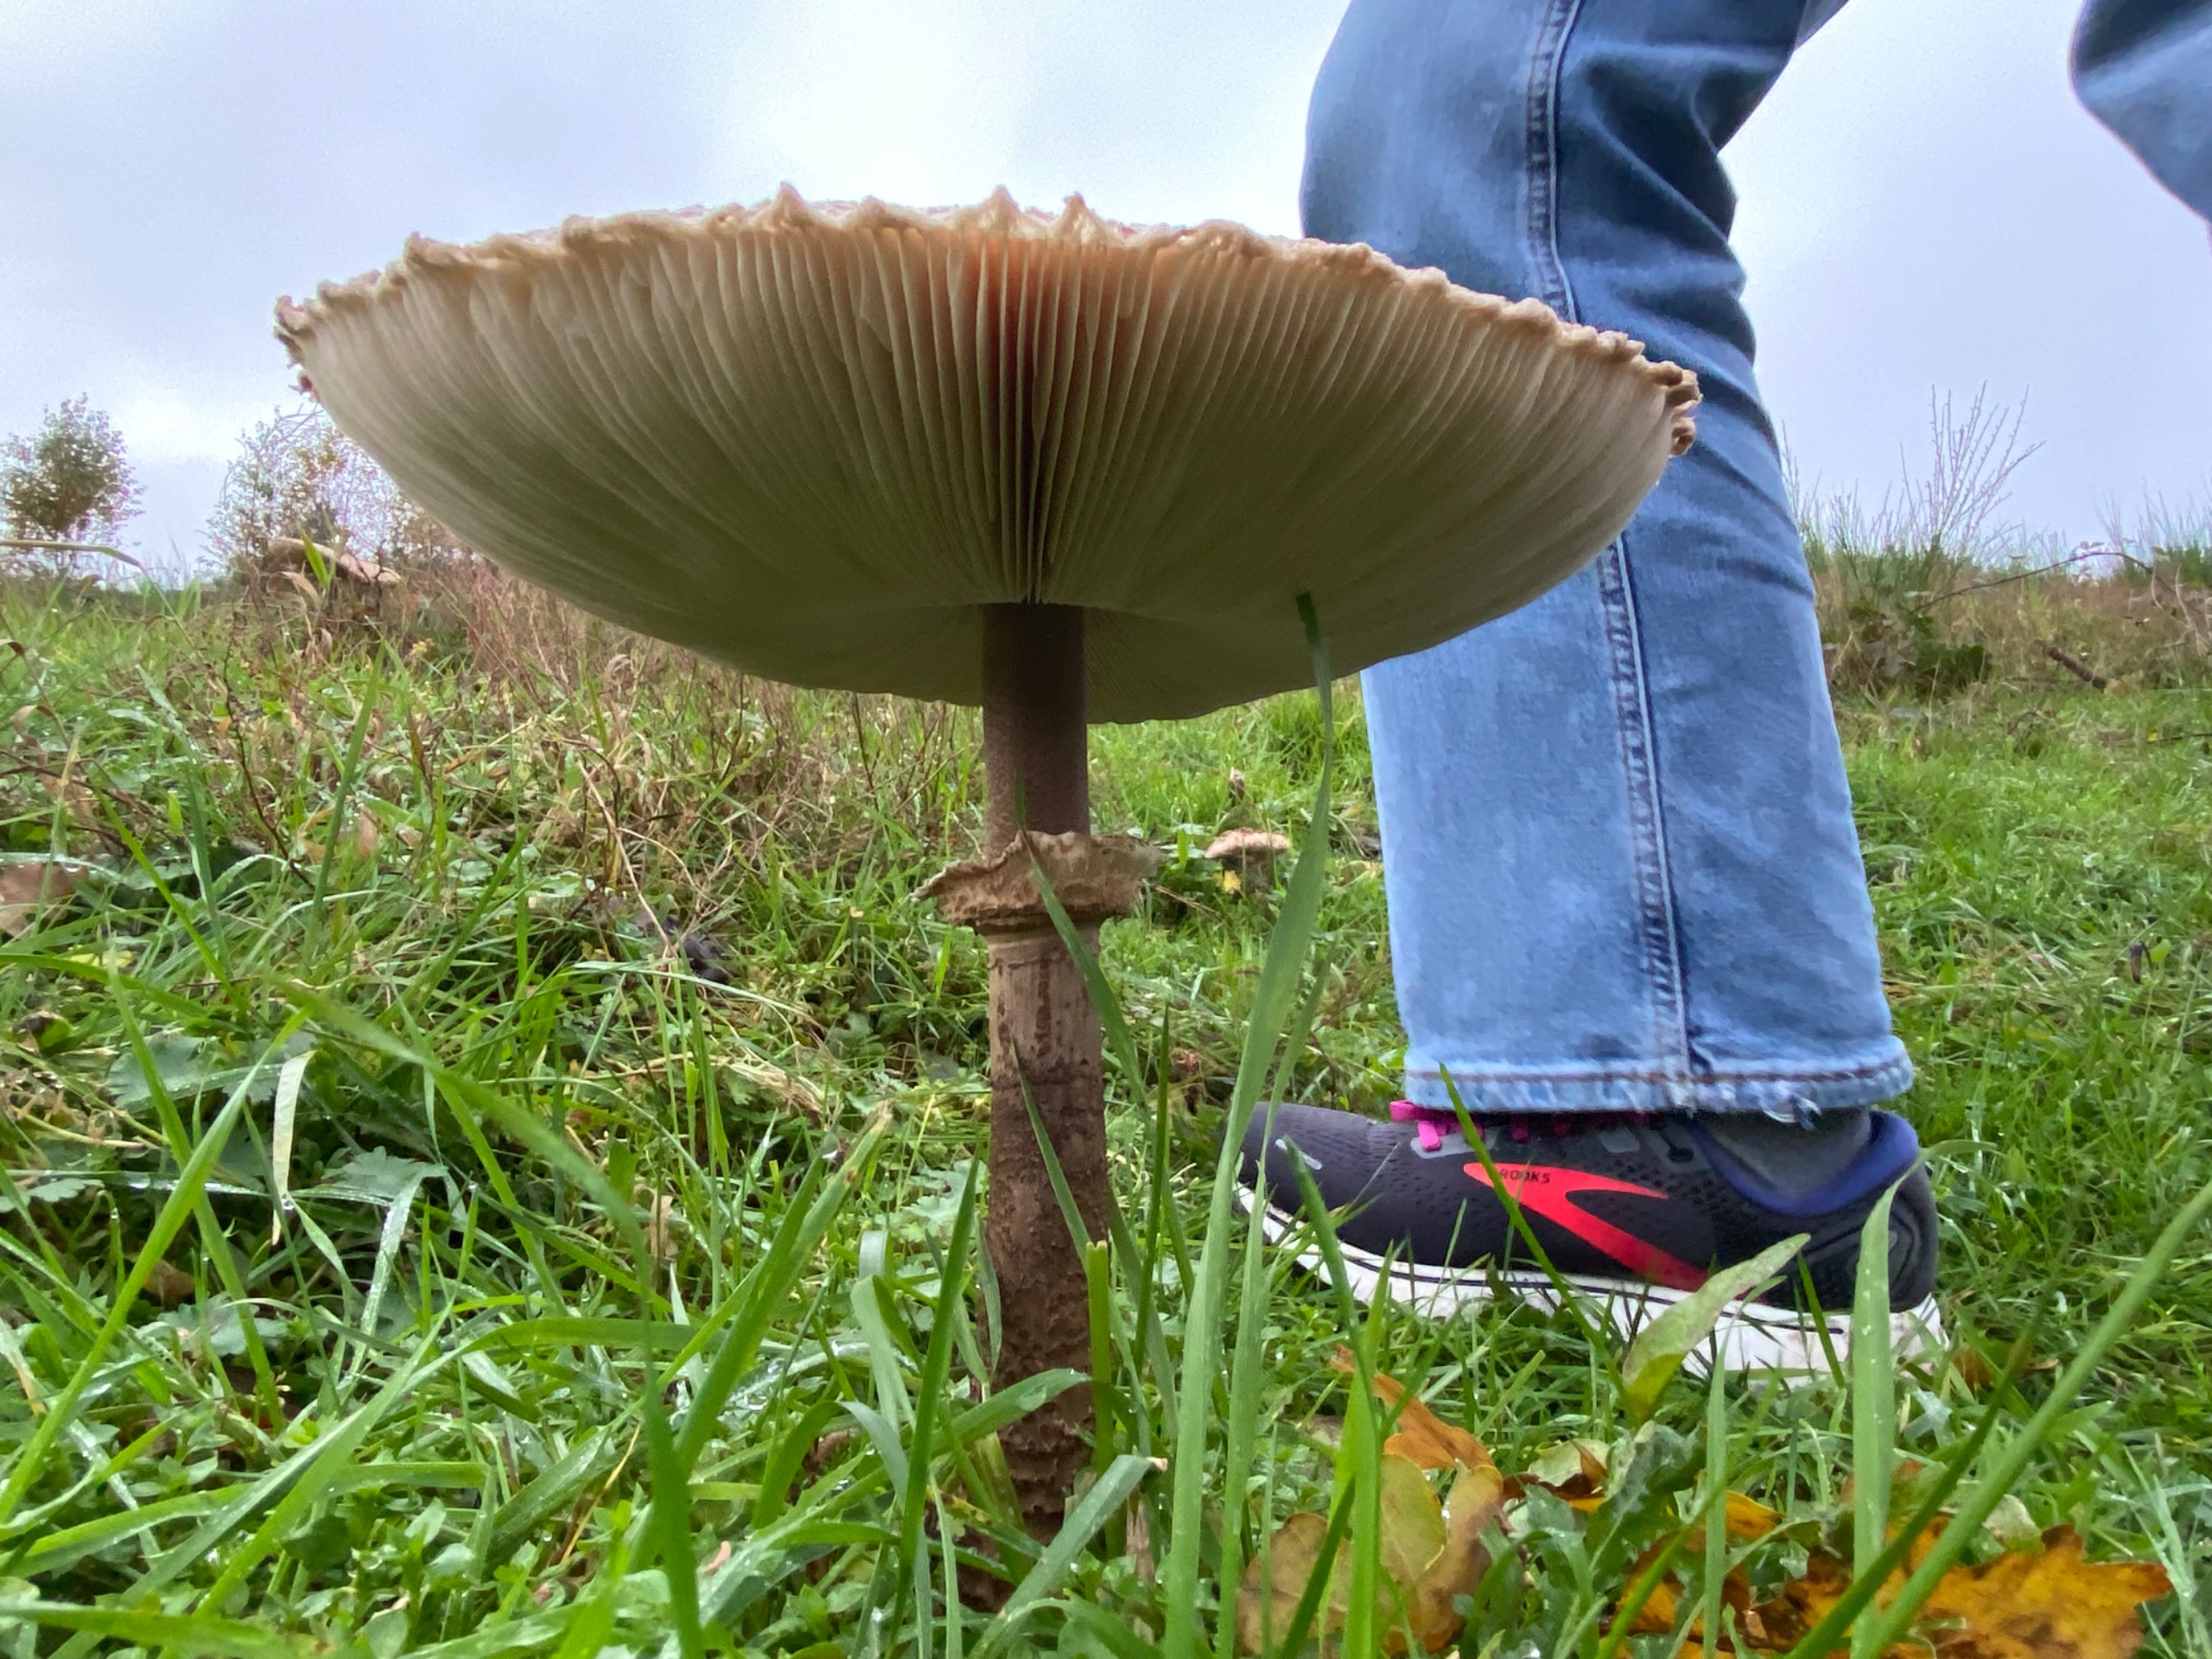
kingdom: Fungi
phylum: Basidiomycota
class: Agaricomycetes
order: Agaricales
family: Agaricaceae
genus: Macrolepiota
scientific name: Macrolepiota procera
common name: Stor kæmpeparasolhat
